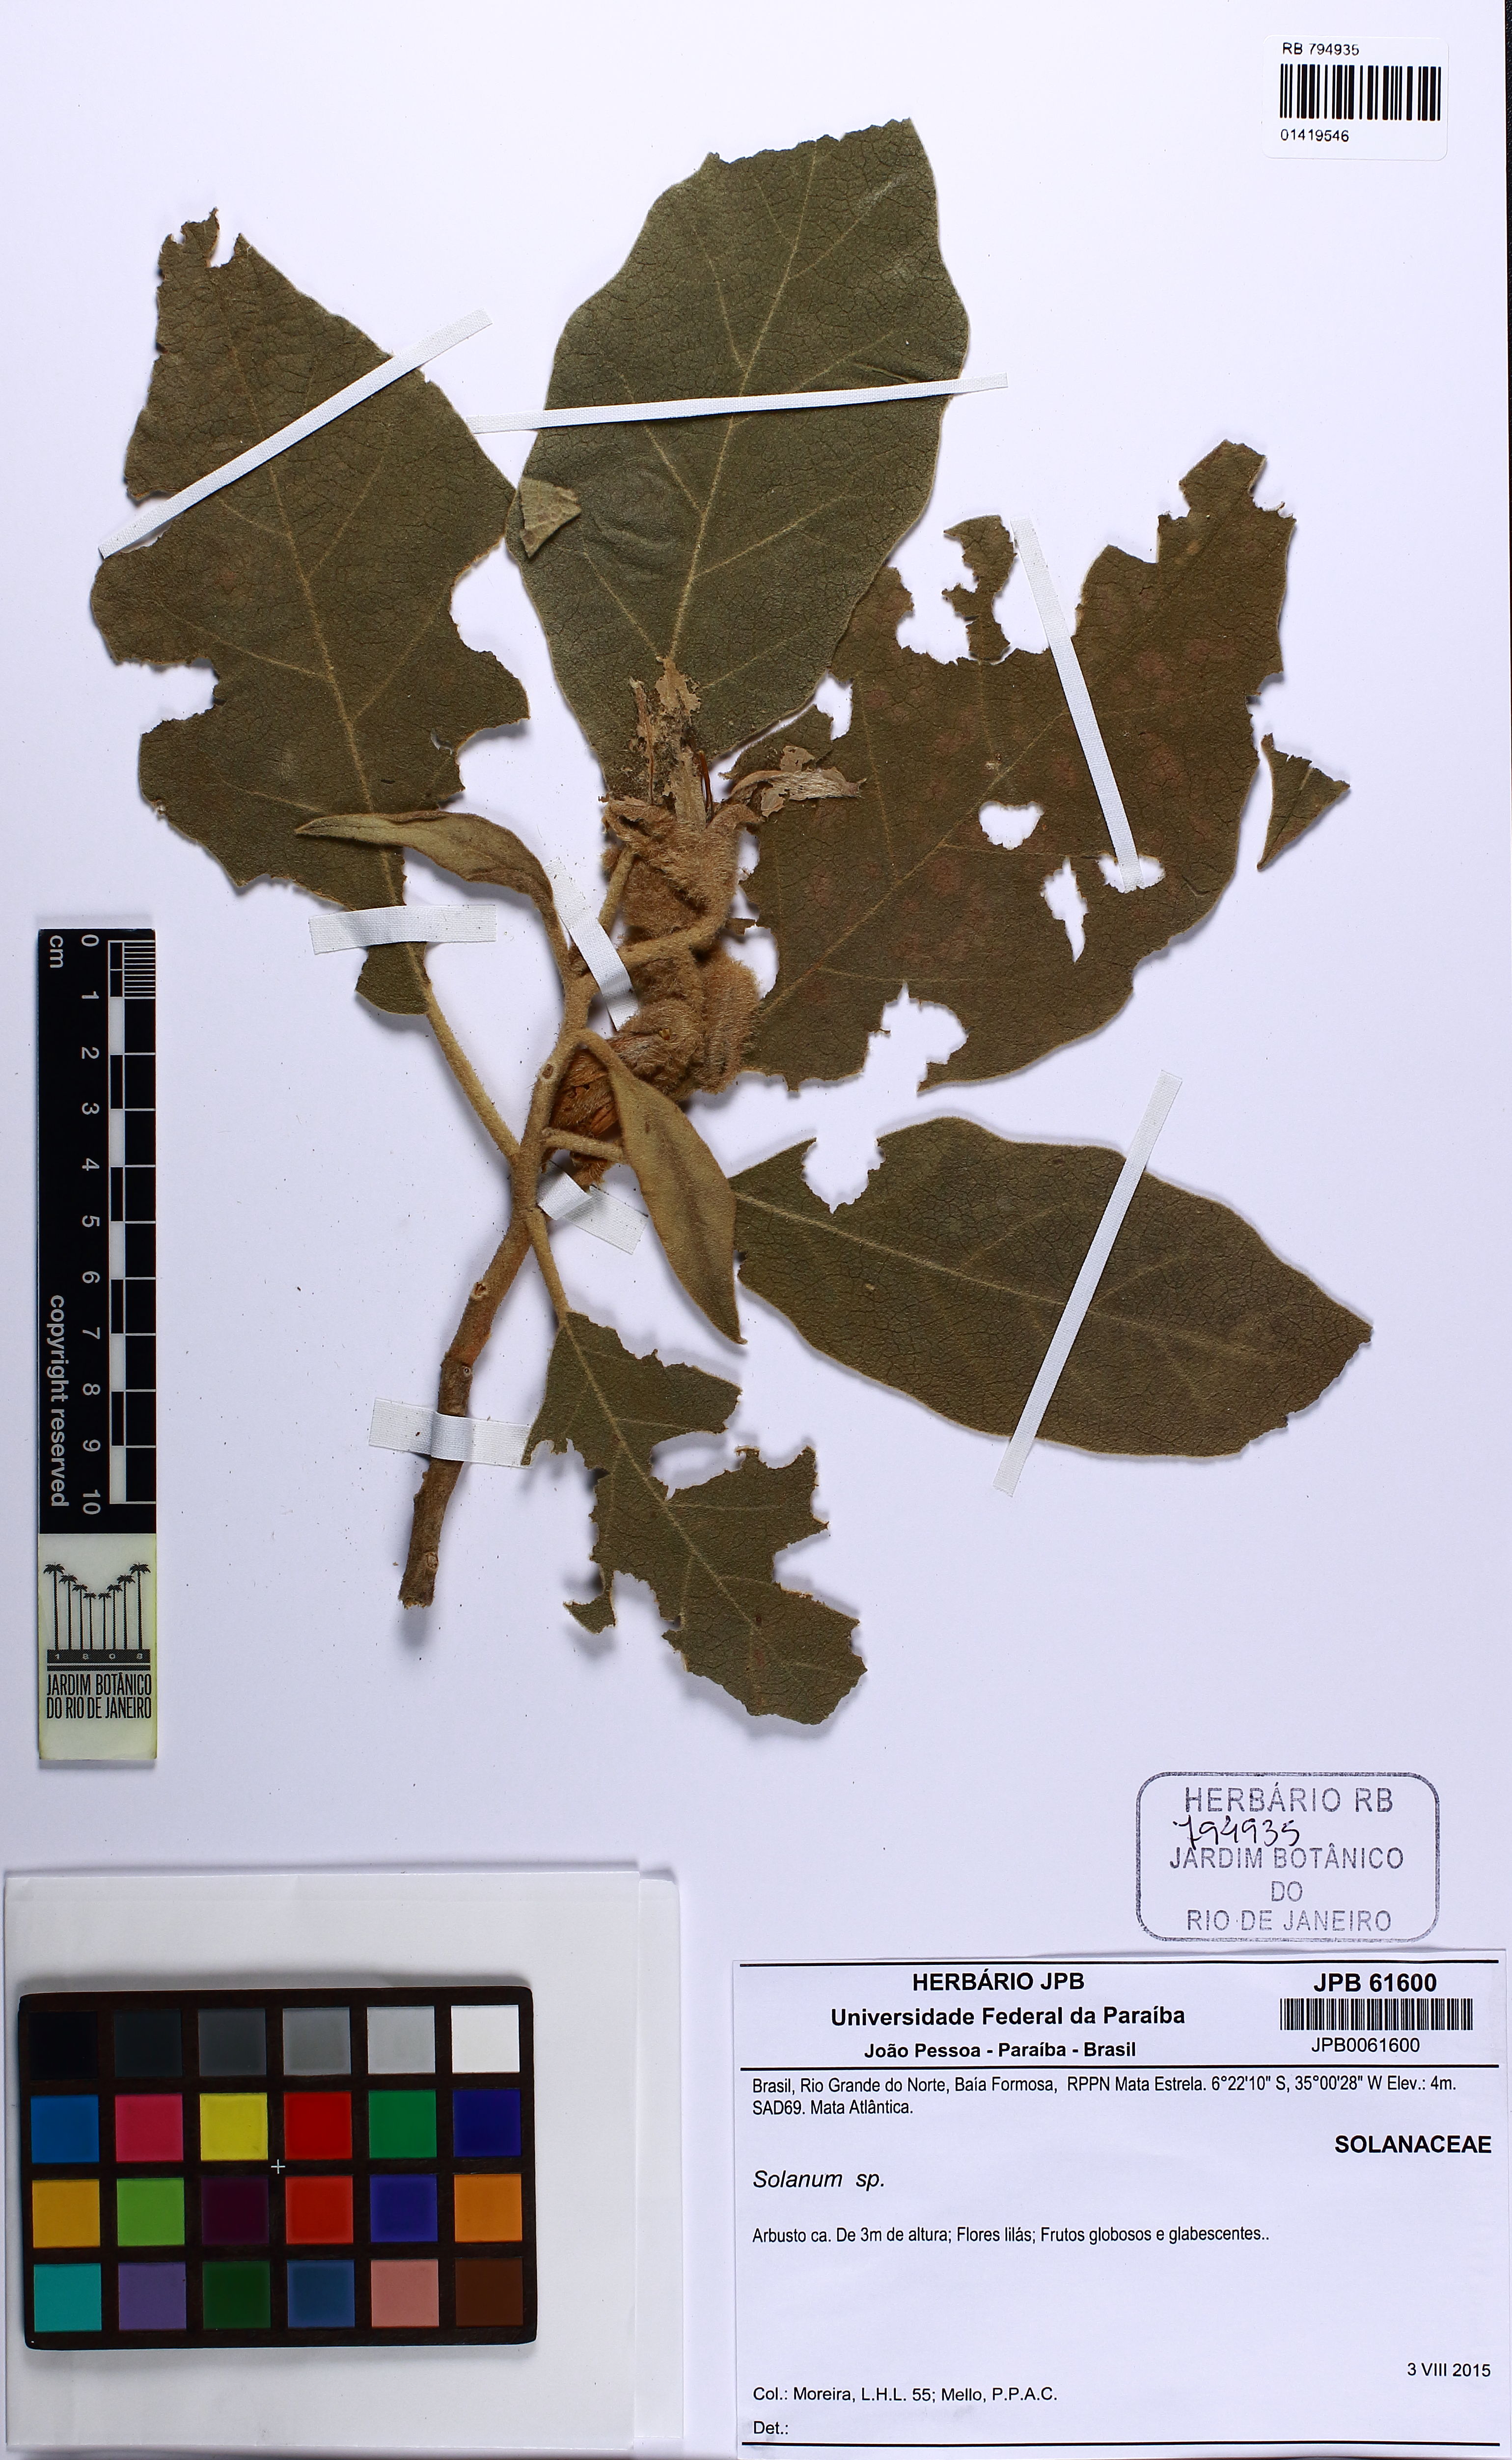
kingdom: Plantae
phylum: Tracheophyta
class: Magnoliopsida
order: Solanales
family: Solanaceae
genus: Solanum
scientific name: Solanum
